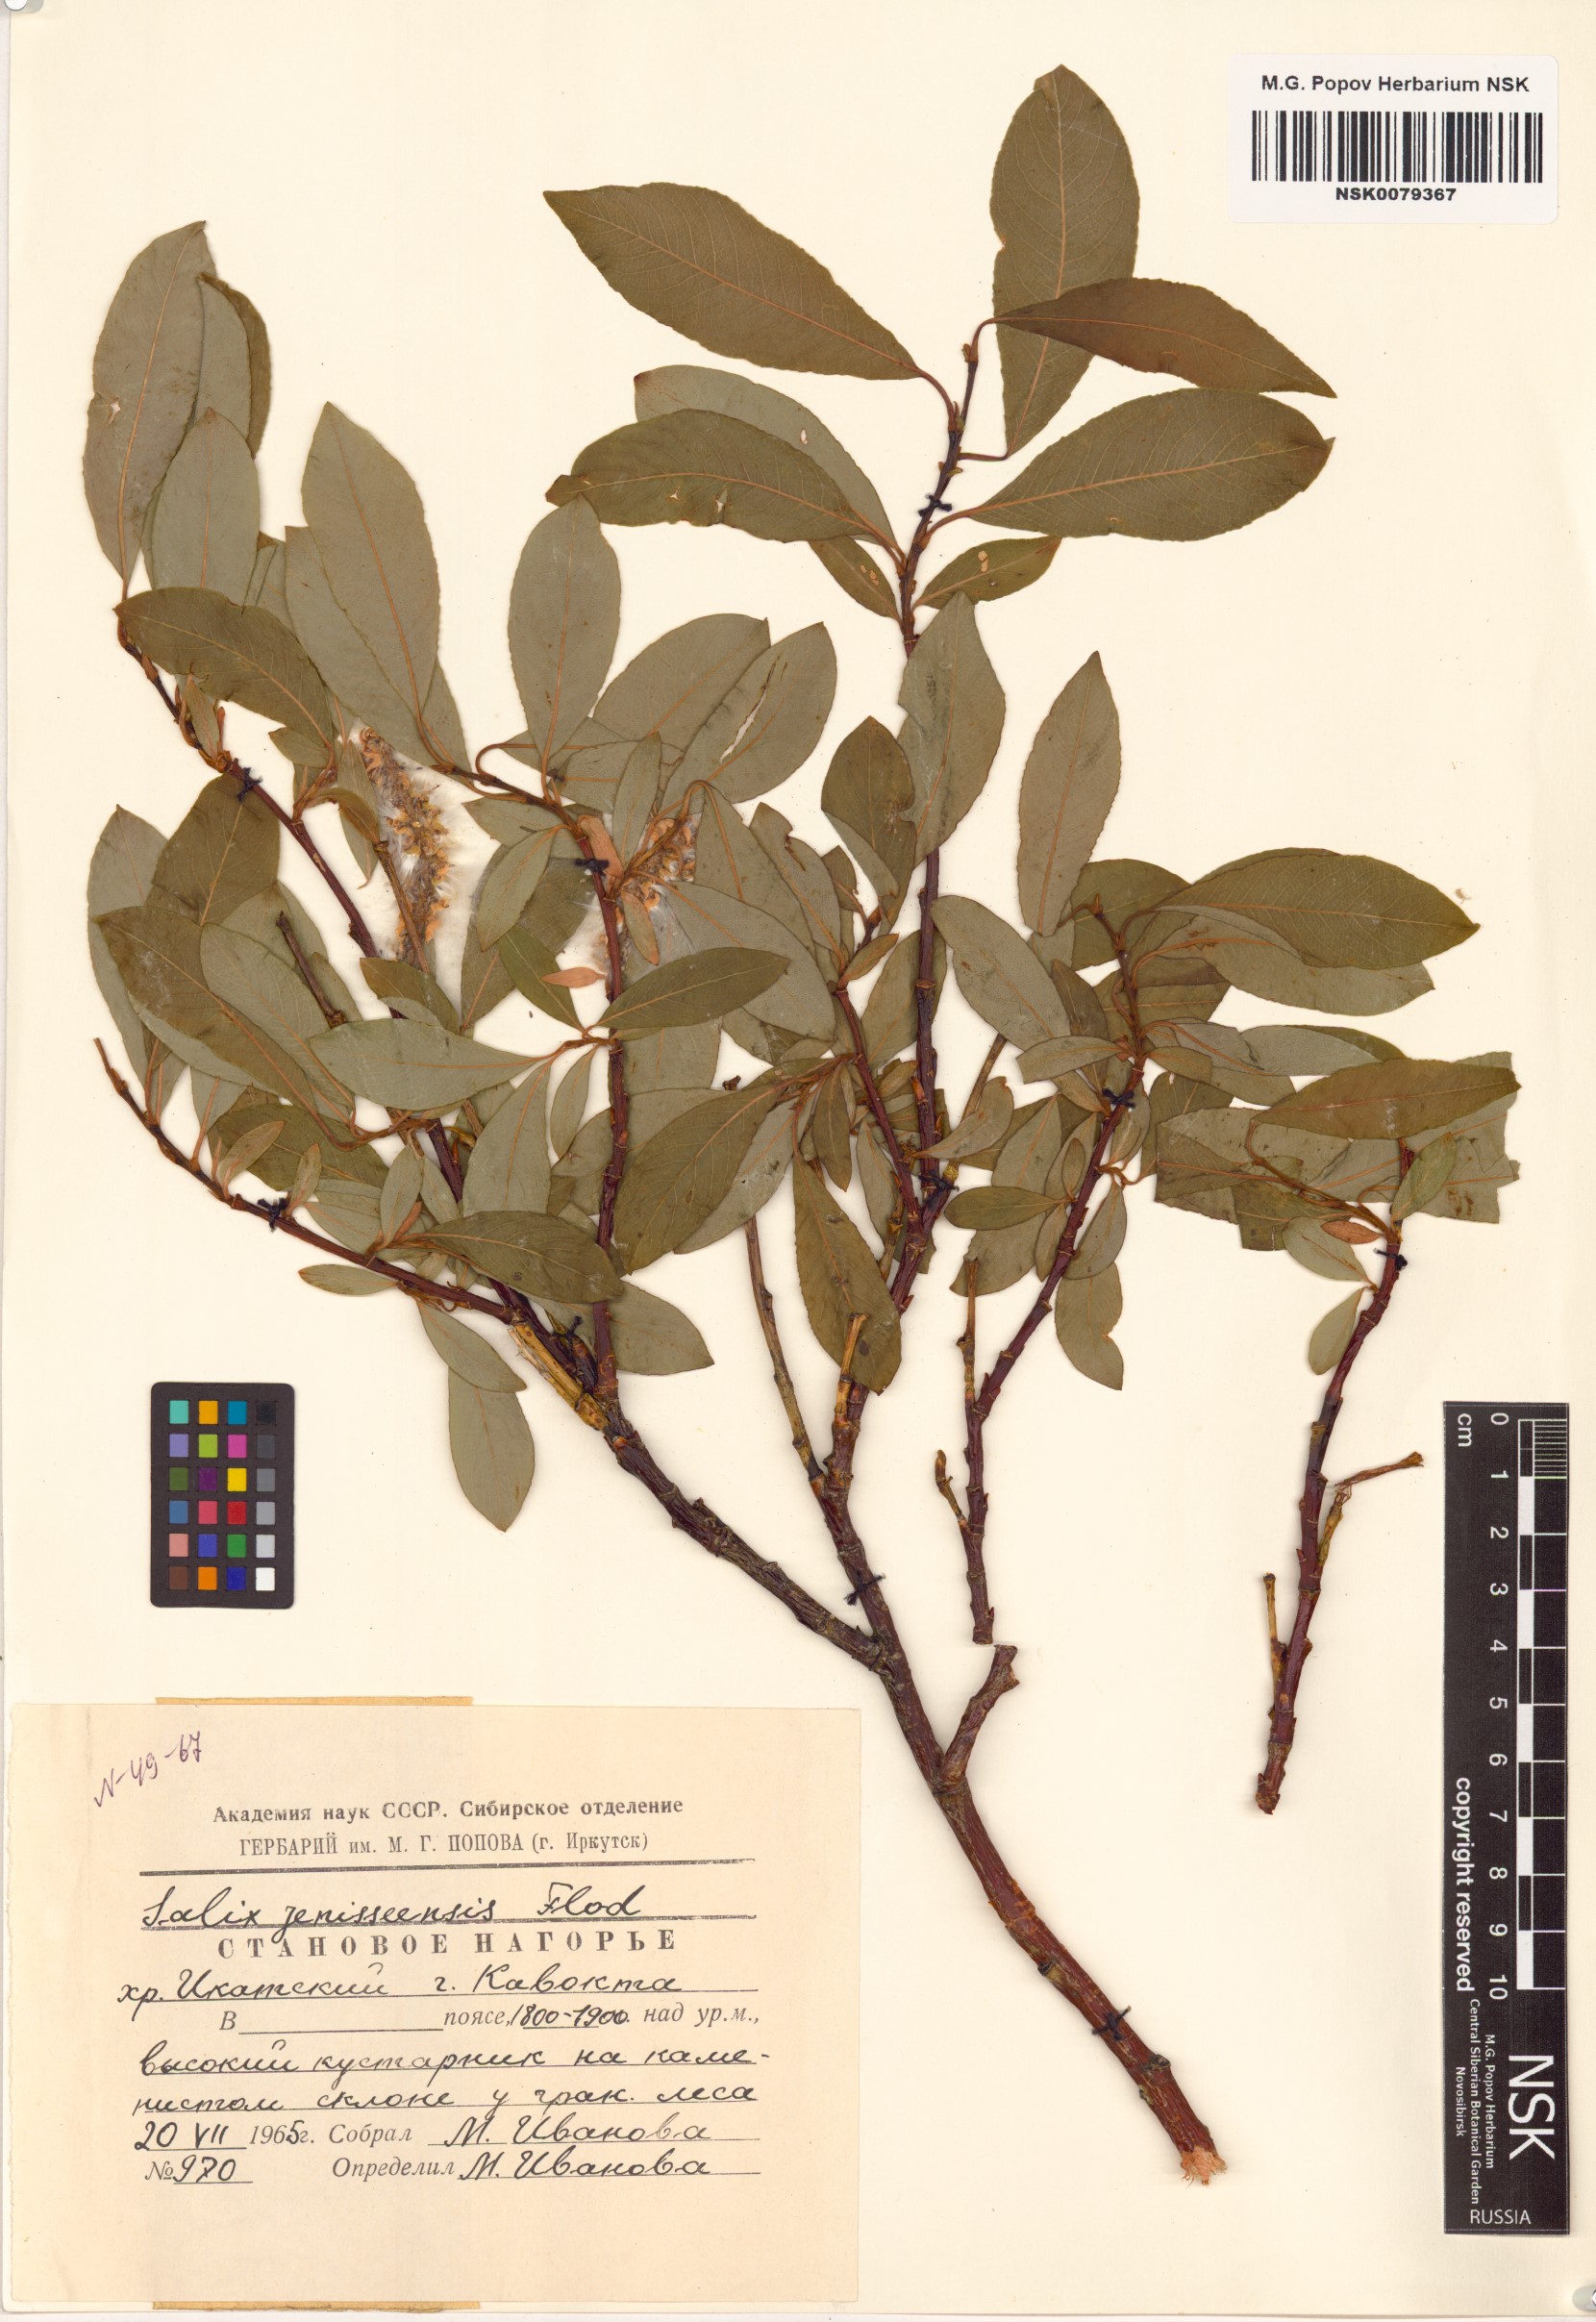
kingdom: Plantae
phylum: Tracheophyta
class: Magnoliopsida
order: Malpighiales
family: Salicaceae
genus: Salix
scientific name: Salix jenisseensis
